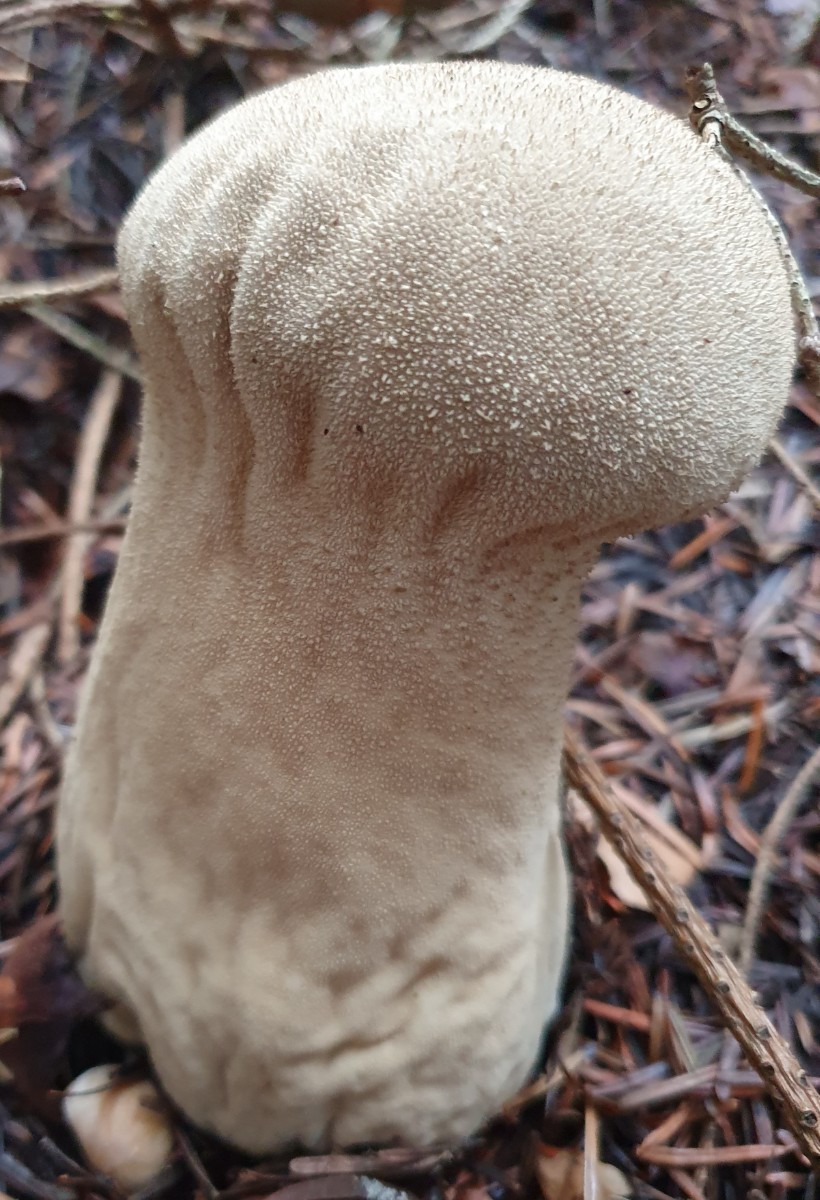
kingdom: Fungi
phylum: Basidiomycota
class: Agaricomycetes
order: Agaricales
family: Lycoperdaceae
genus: Lycoperdon
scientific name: Lycoperdon excipuliforme
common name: højstokket støvbold
